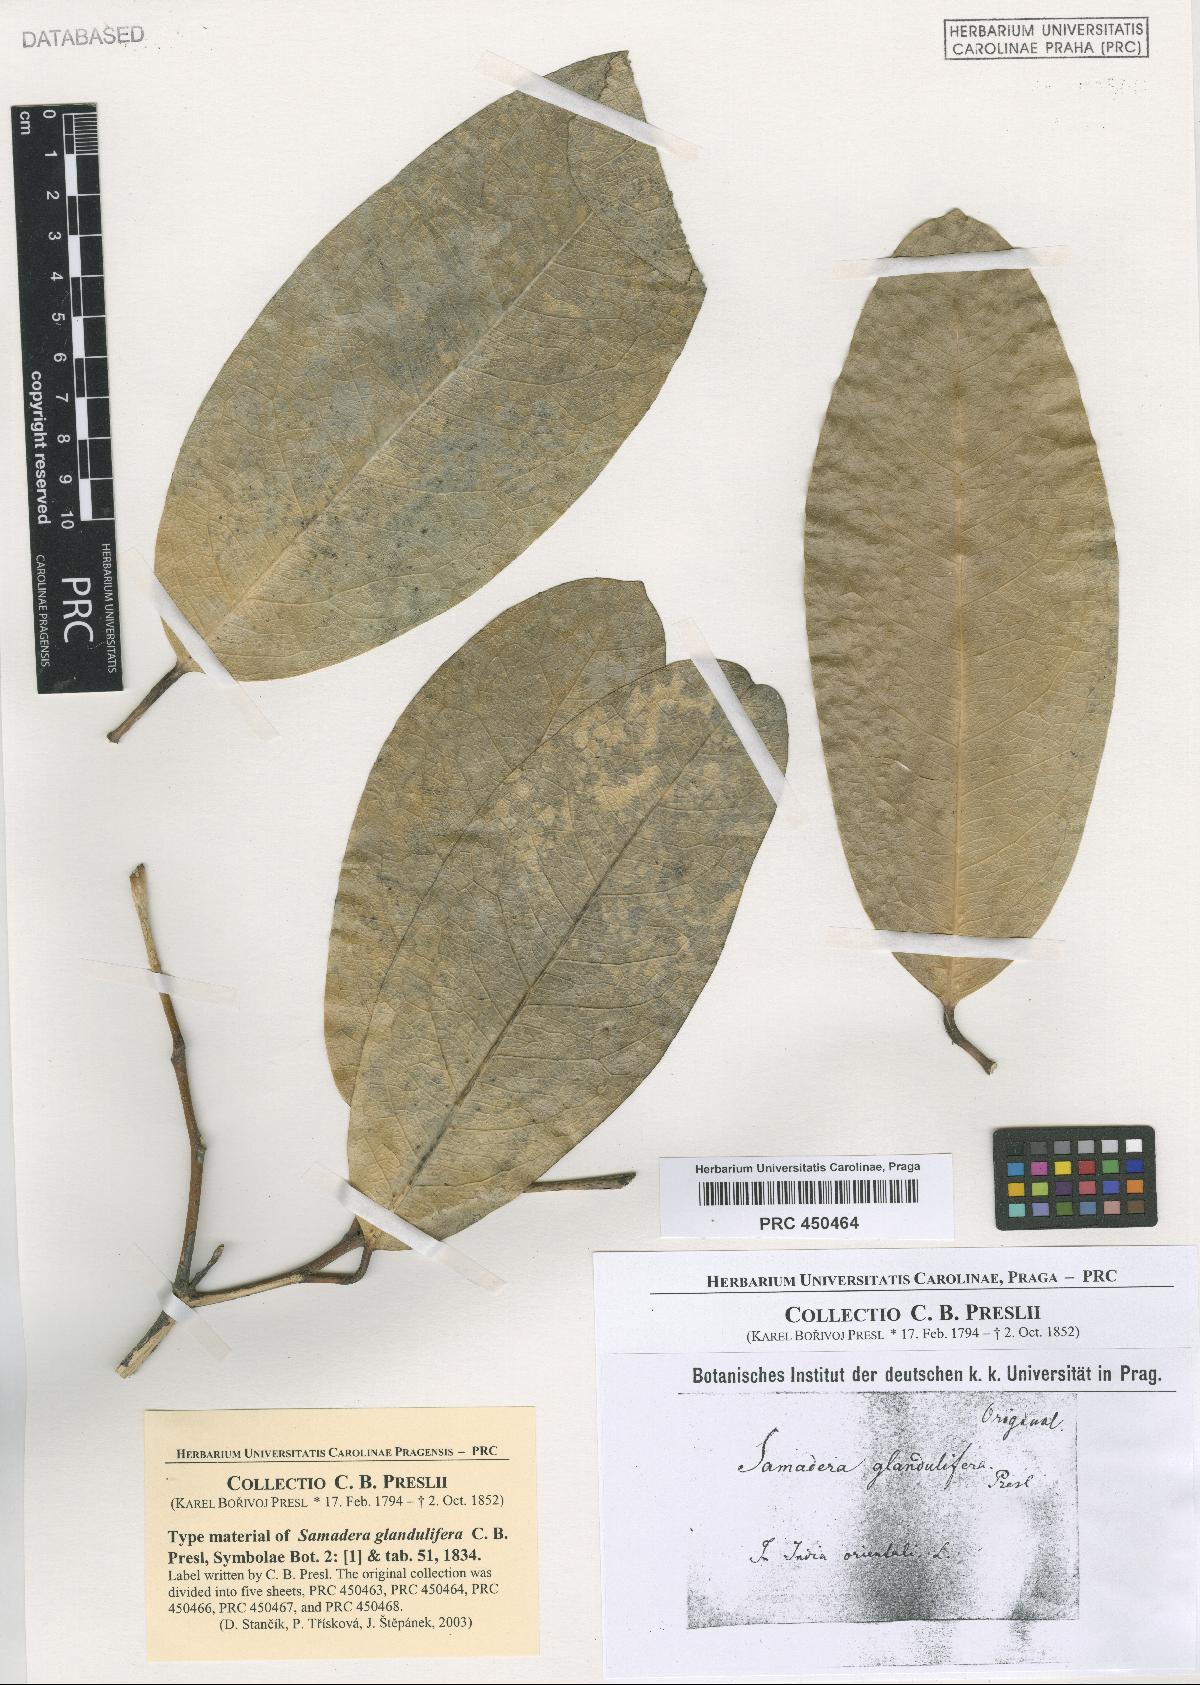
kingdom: Plantae
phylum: Tracheophyta
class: Magnoliopsida
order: Sapindales
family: Simaroubaceae
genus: Samadera
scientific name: Samadera indica
